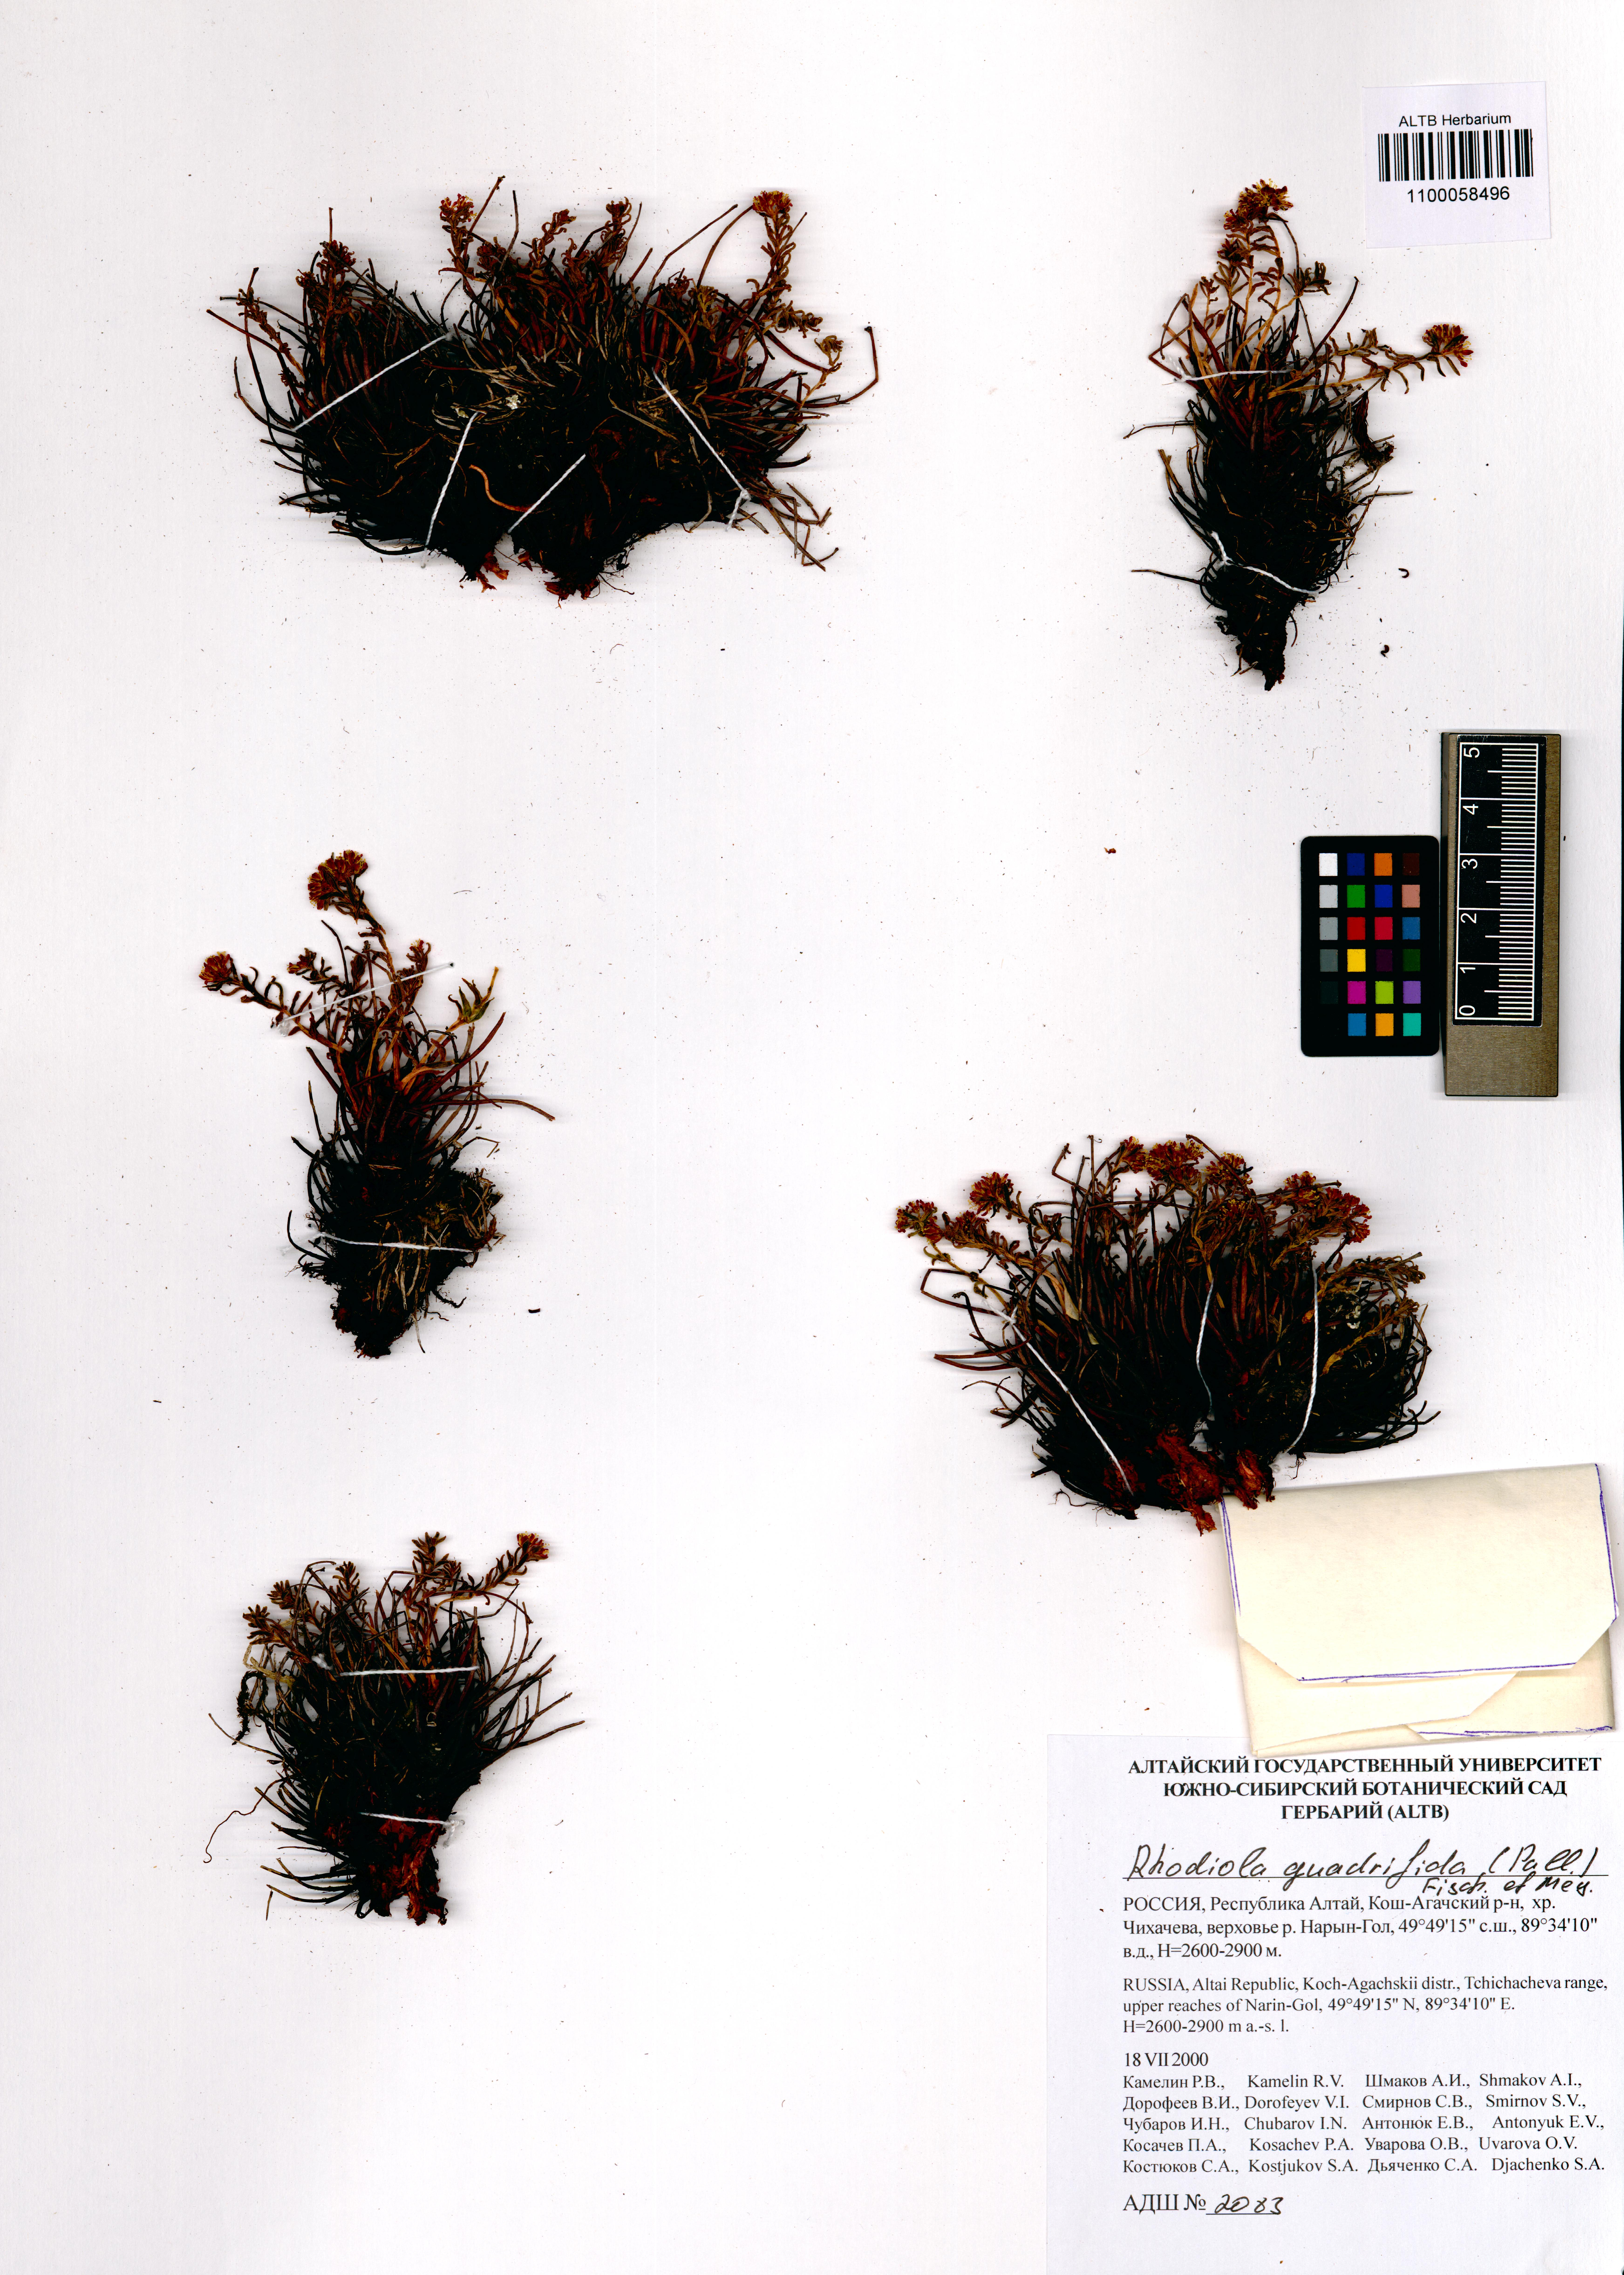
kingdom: Plantae
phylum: Tracheophyta
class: Magnoliopsida
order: Saxifragales
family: Crassulaceae
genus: Rhodiola
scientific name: Rhodiola quadrifida
